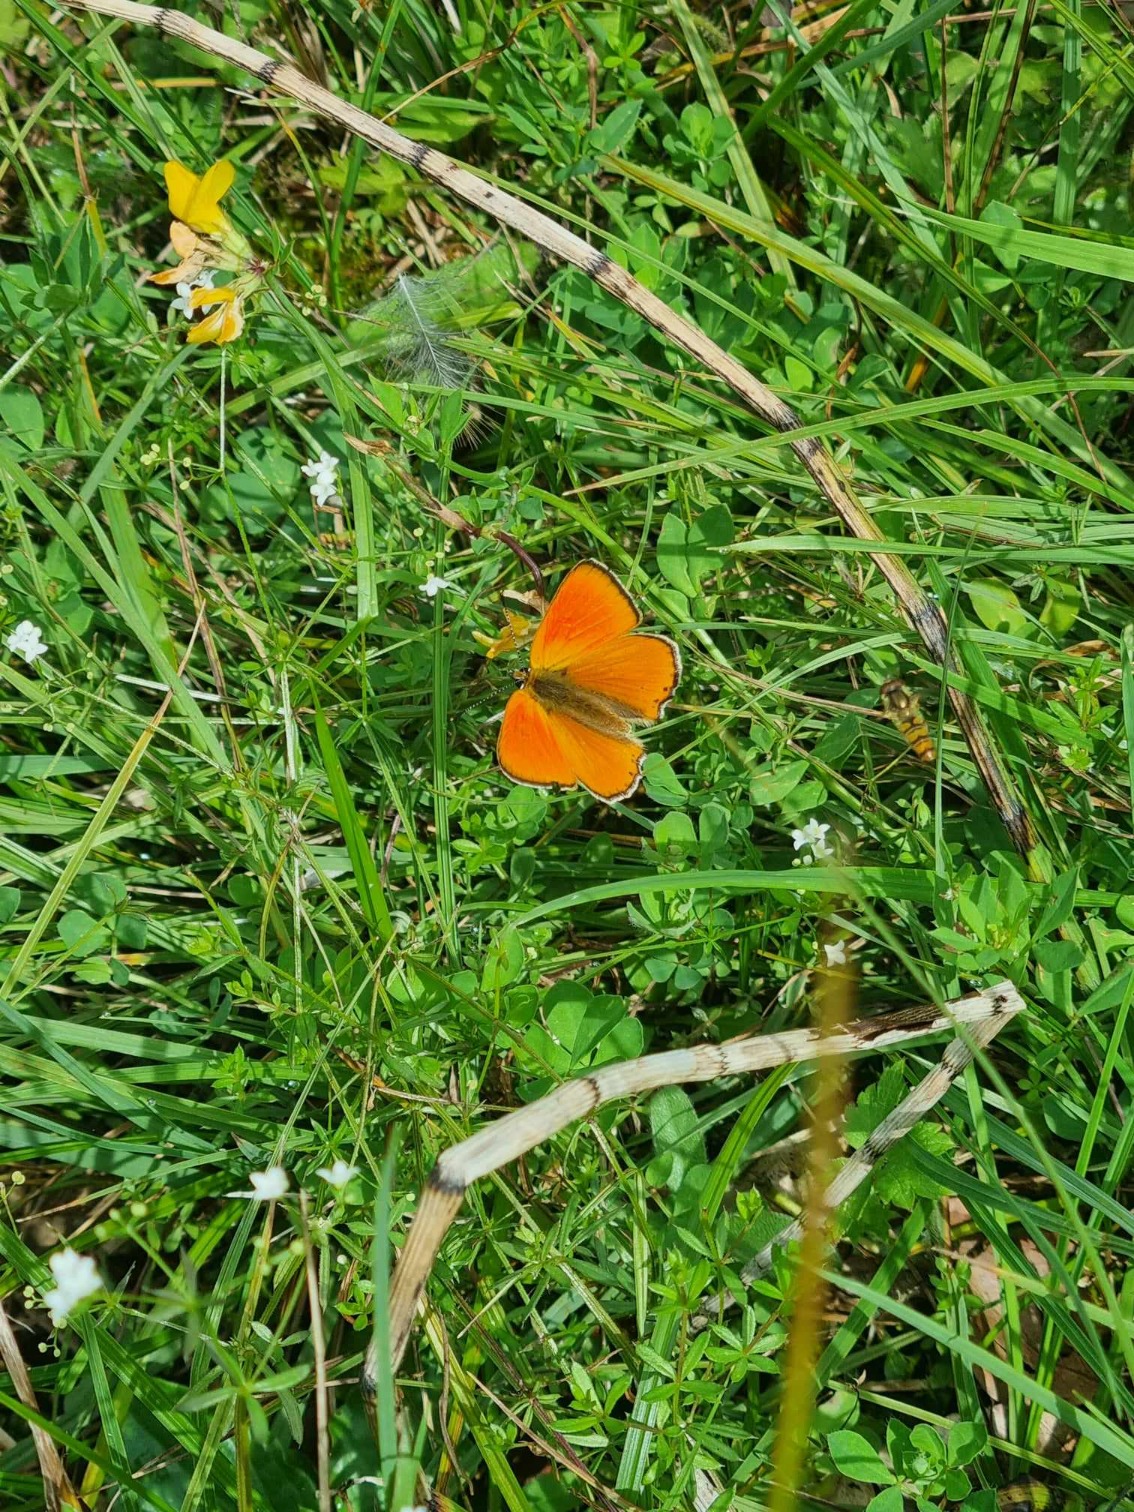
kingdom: Animalia
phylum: Arthropoda
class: Insecta
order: Lepidoptera
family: Lycaenidae
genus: Lycaena
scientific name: Lycaena virgaureae
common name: Dukatsommerfugl
